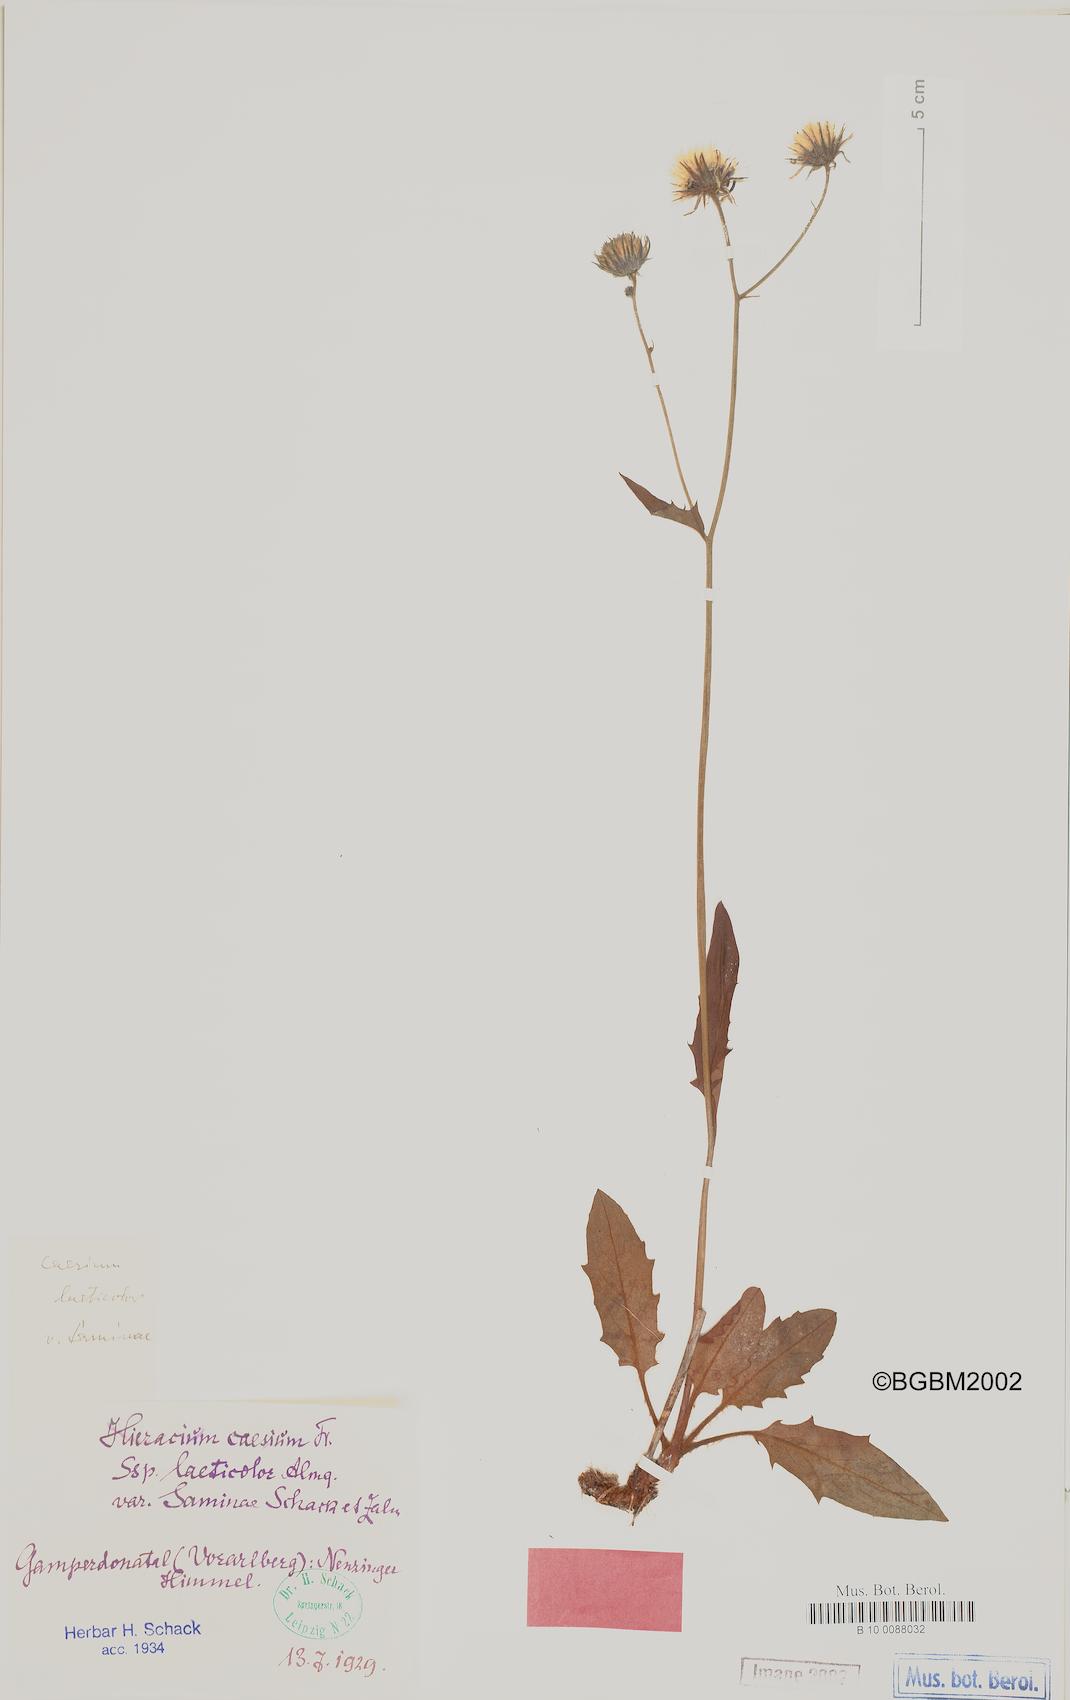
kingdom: Plantae
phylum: Tracheophyta
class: Magnoliopsida
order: Asterales
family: Asteraceae
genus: Hieracium
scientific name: Hieracium caesium
